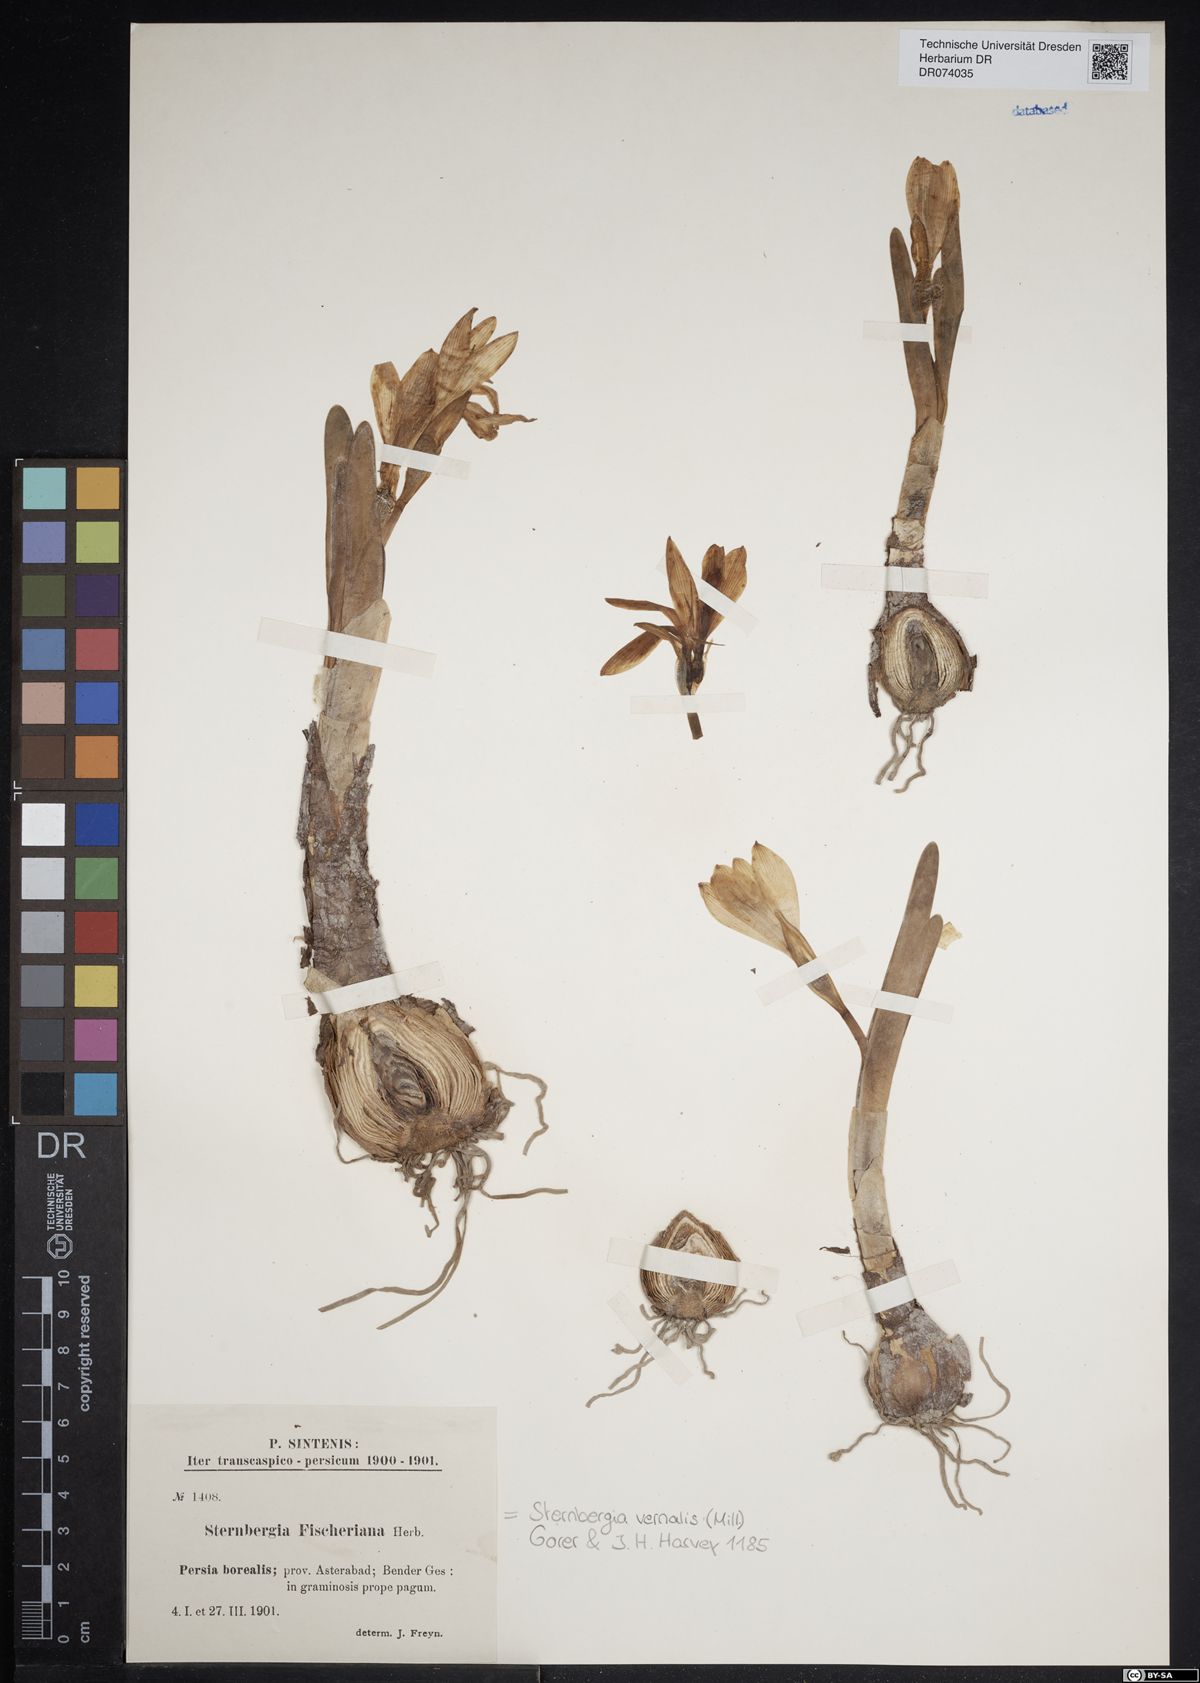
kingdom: Plantae
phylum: Tracheophyta
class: Liliopsida
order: Asparagales
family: Amaryllidaceae
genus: Sternbergia
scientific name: Sternbergia vernalis
